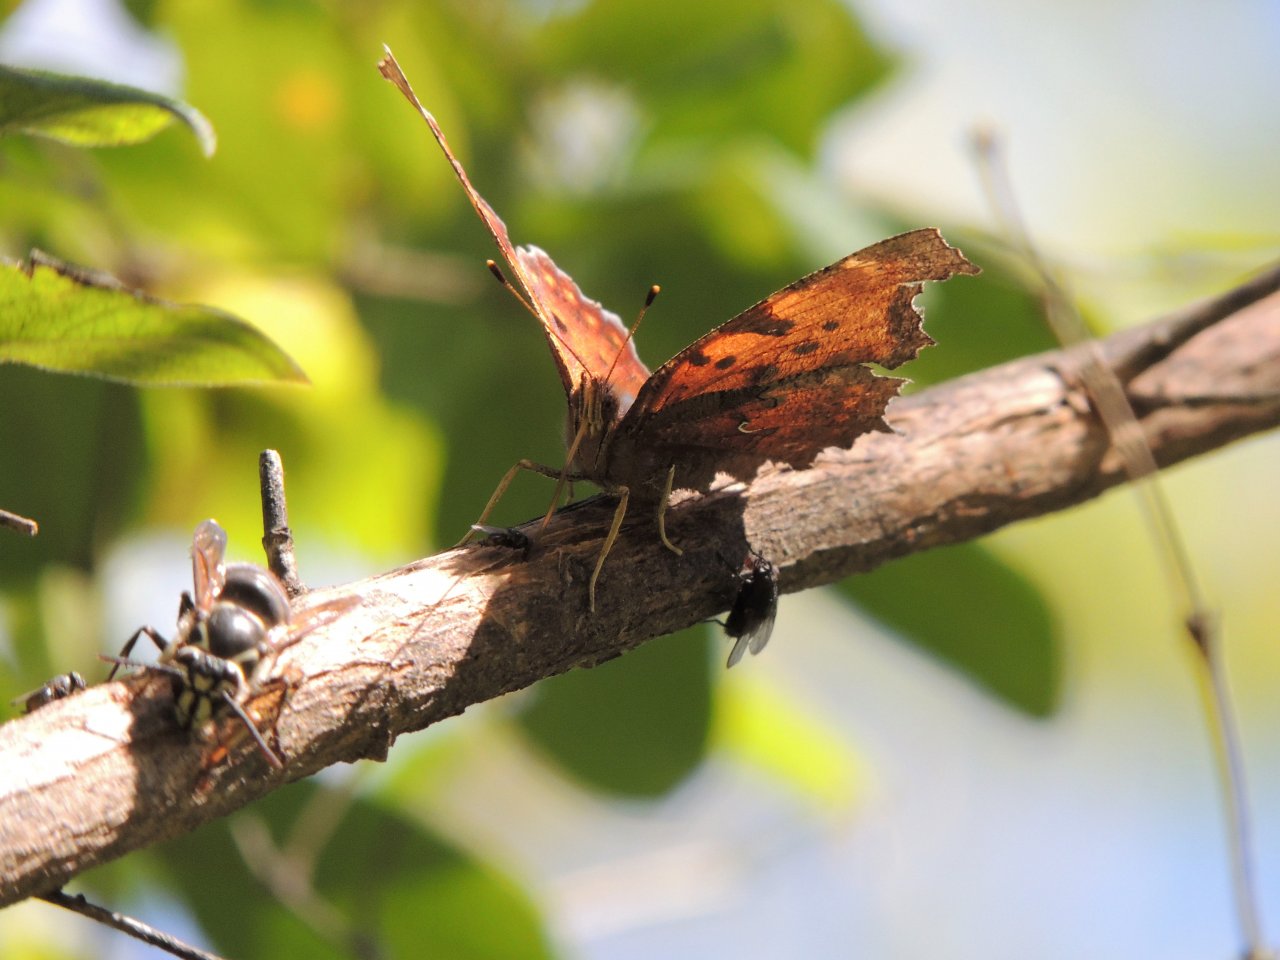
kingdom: Animalia
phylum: Arthropoda
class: Insecta
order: Lepidoptera
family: Nymphalidae
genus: Polygonia
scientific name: Polygonia comma
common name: Eastern Comma
